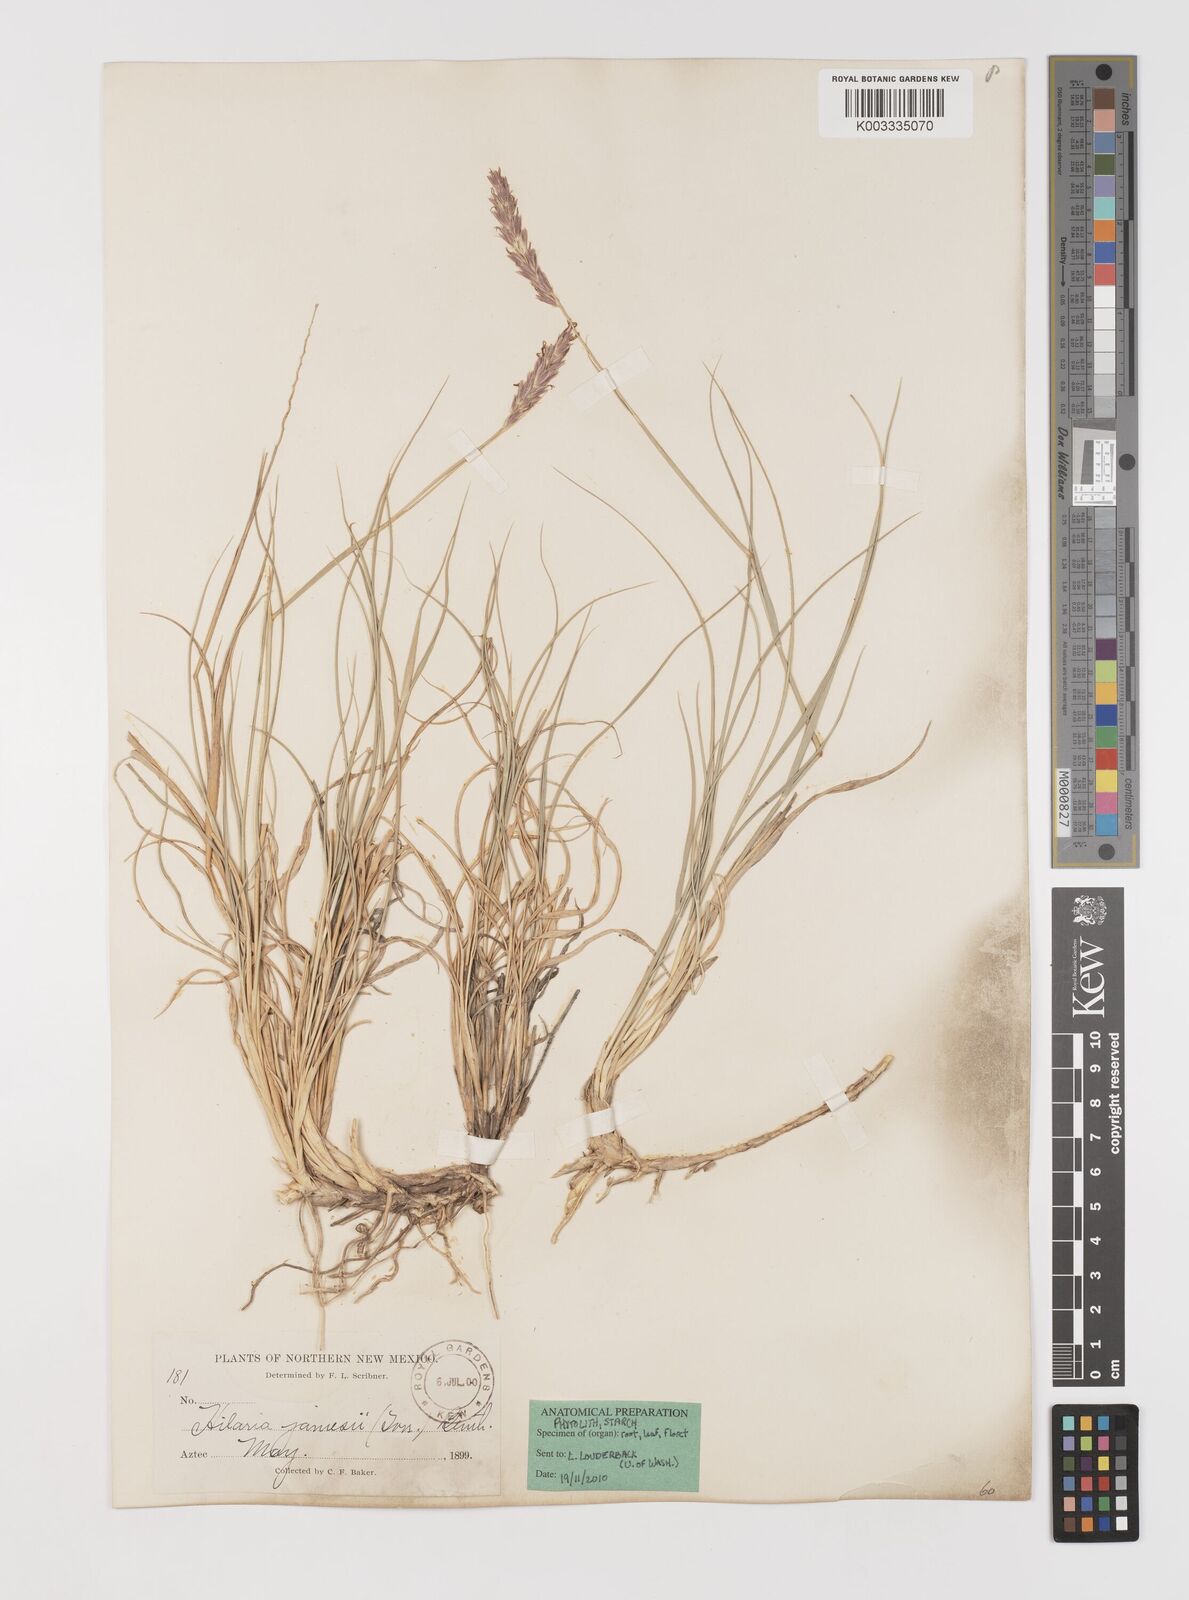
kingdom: Plantae
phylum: Tracheophyta
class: Liliopsida
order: Poales
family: Poaceae
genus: Hilaria
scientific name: Hilaria jamesii
